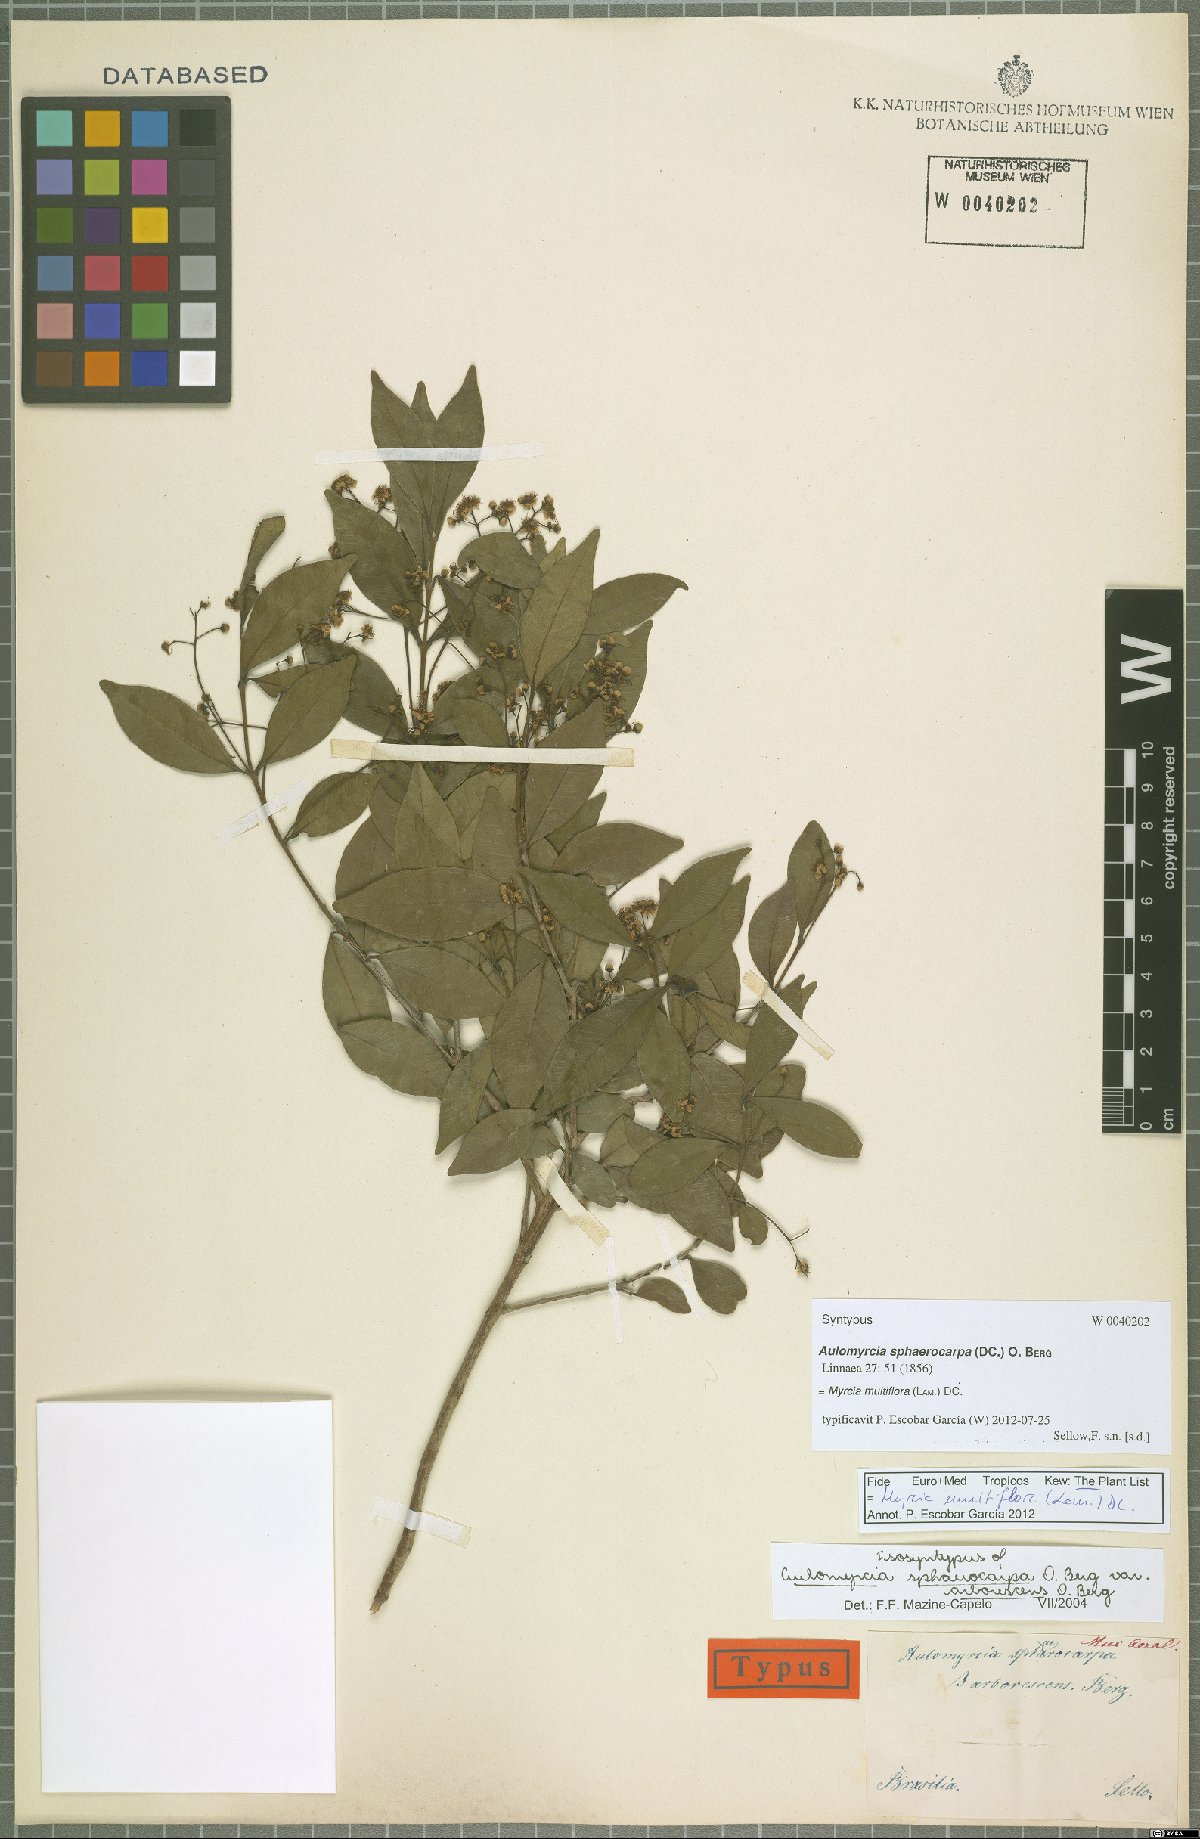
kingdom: Plantae
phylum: Tracheophyta
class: Magnoliopsida
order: Myrtales
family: Myrtaceae
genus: Myrcia
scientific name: Myrcia multiflora
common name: Pedra hume
